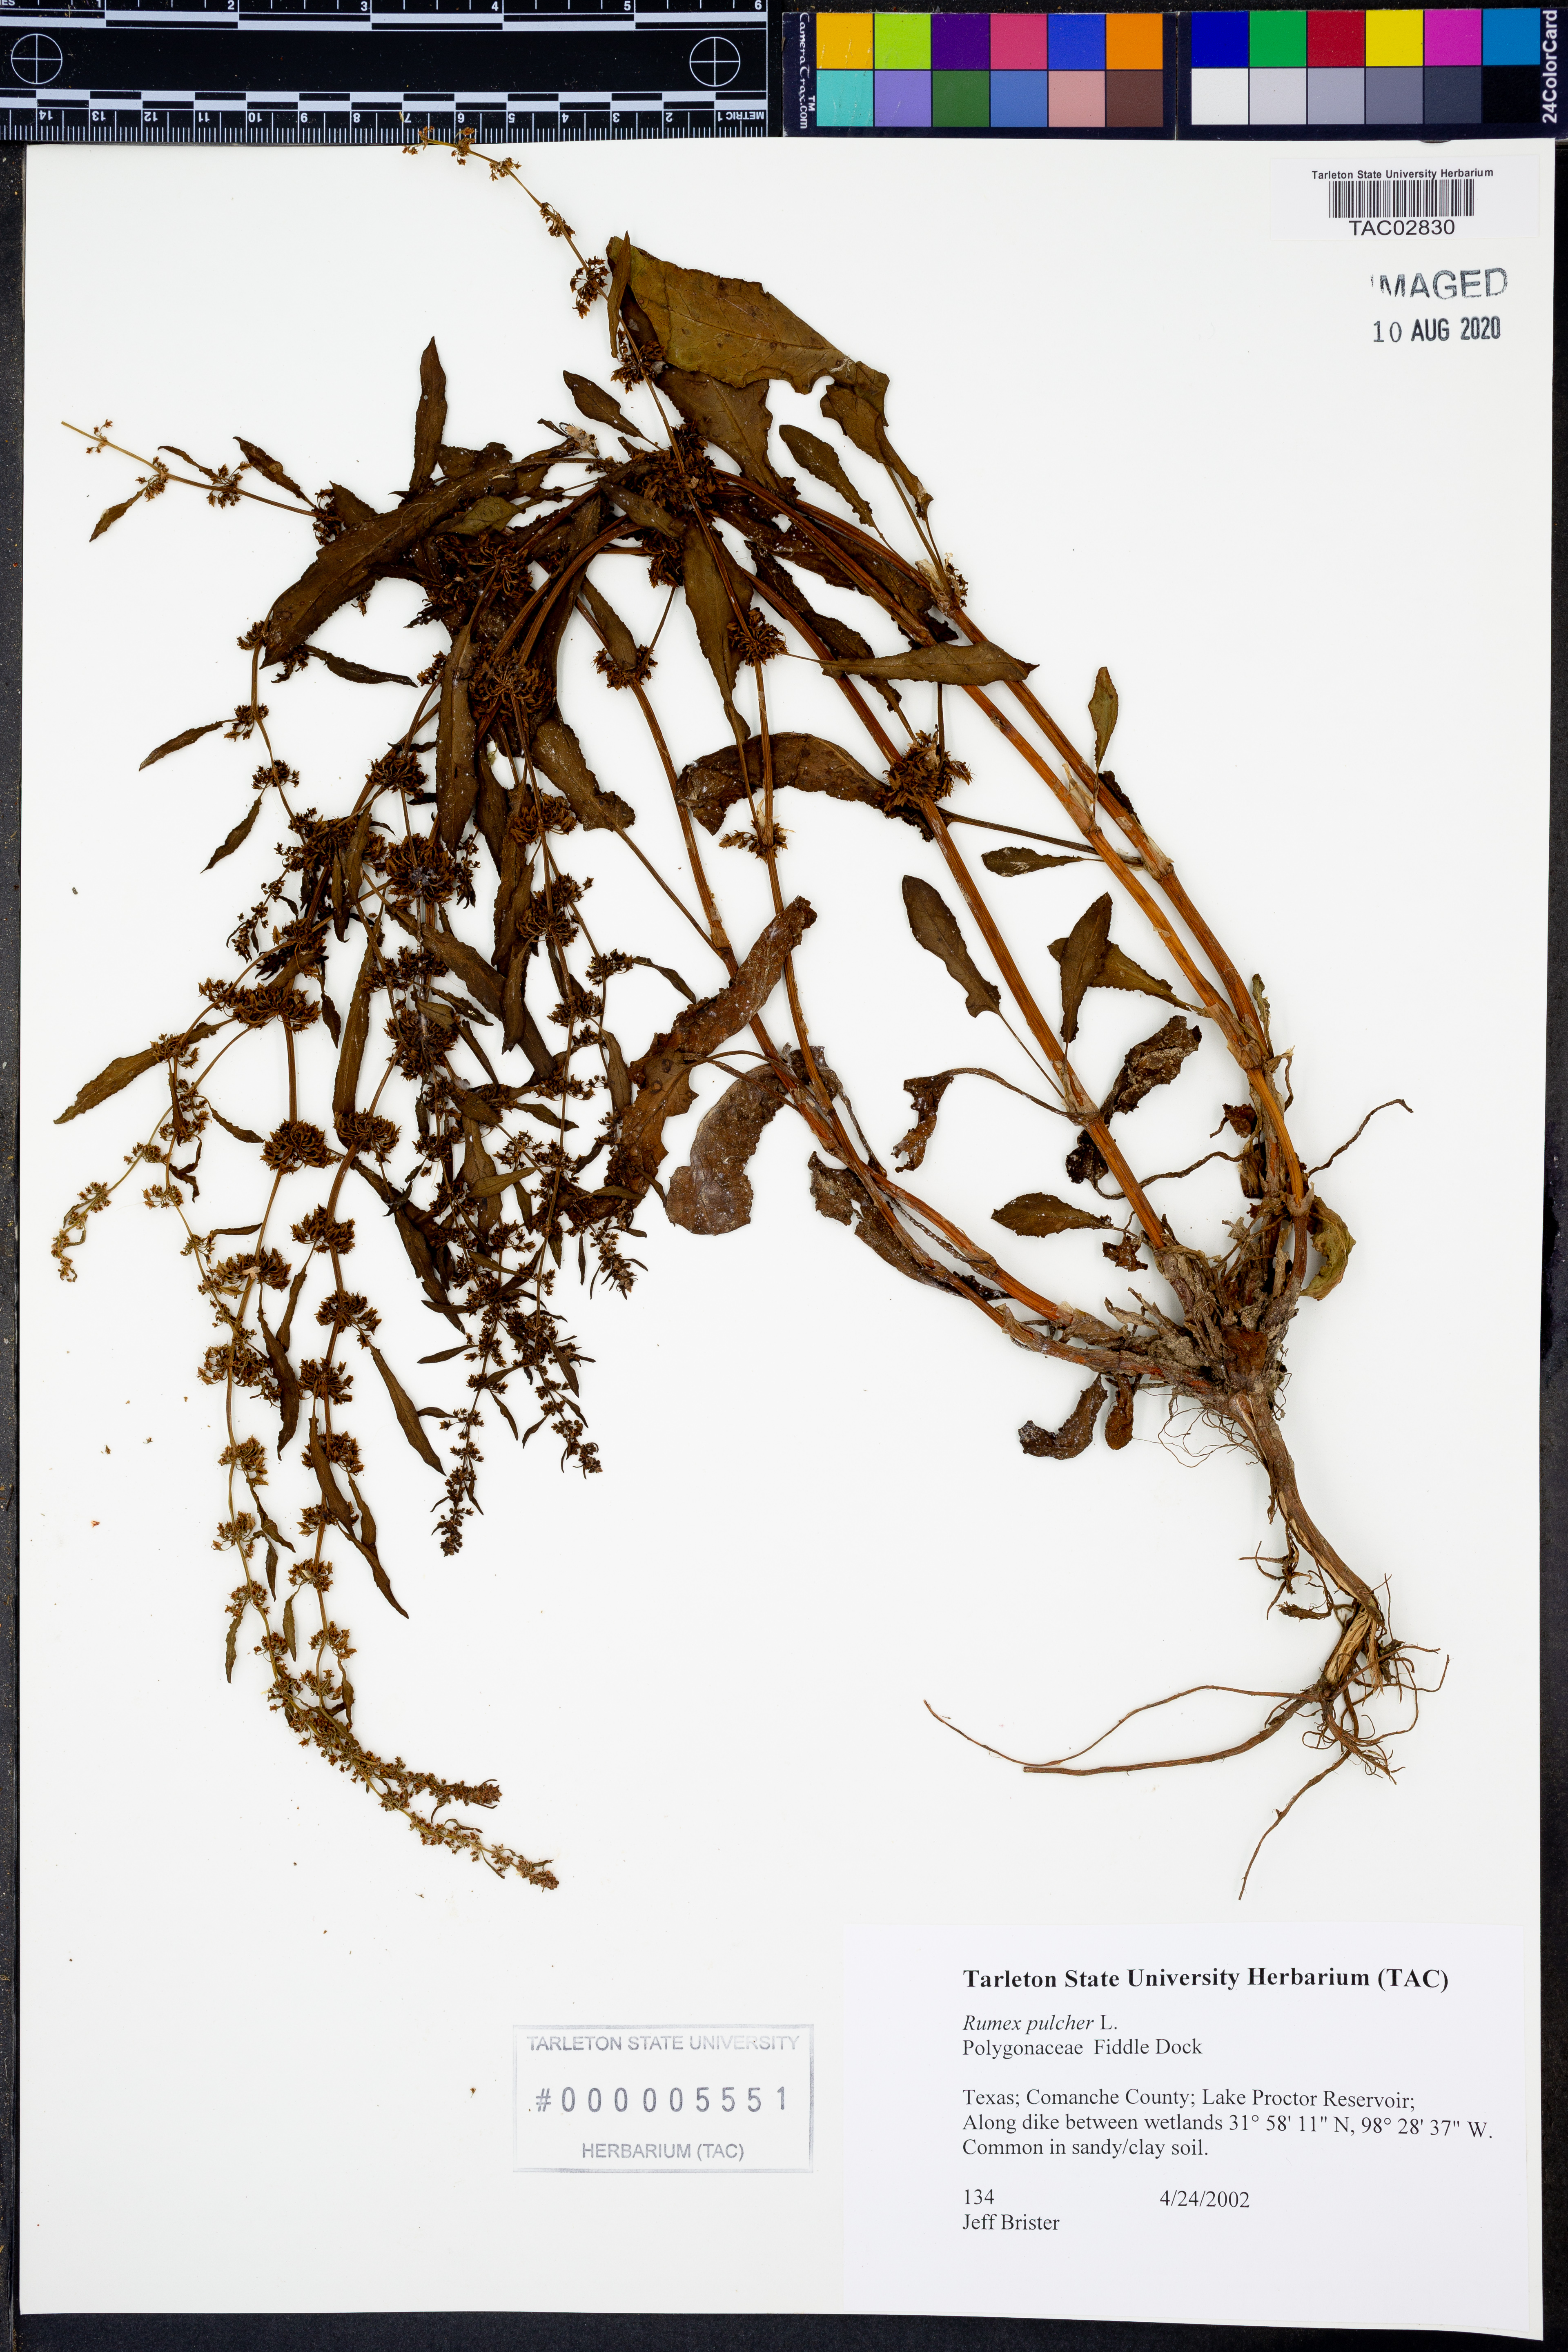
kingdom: Plantae
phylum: Tracheophyta
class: Magnoliopsida
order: Caryophyllales
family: Polygonaceae
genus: Rumex
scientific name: Rumex pulcher
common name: Fiddle dock
